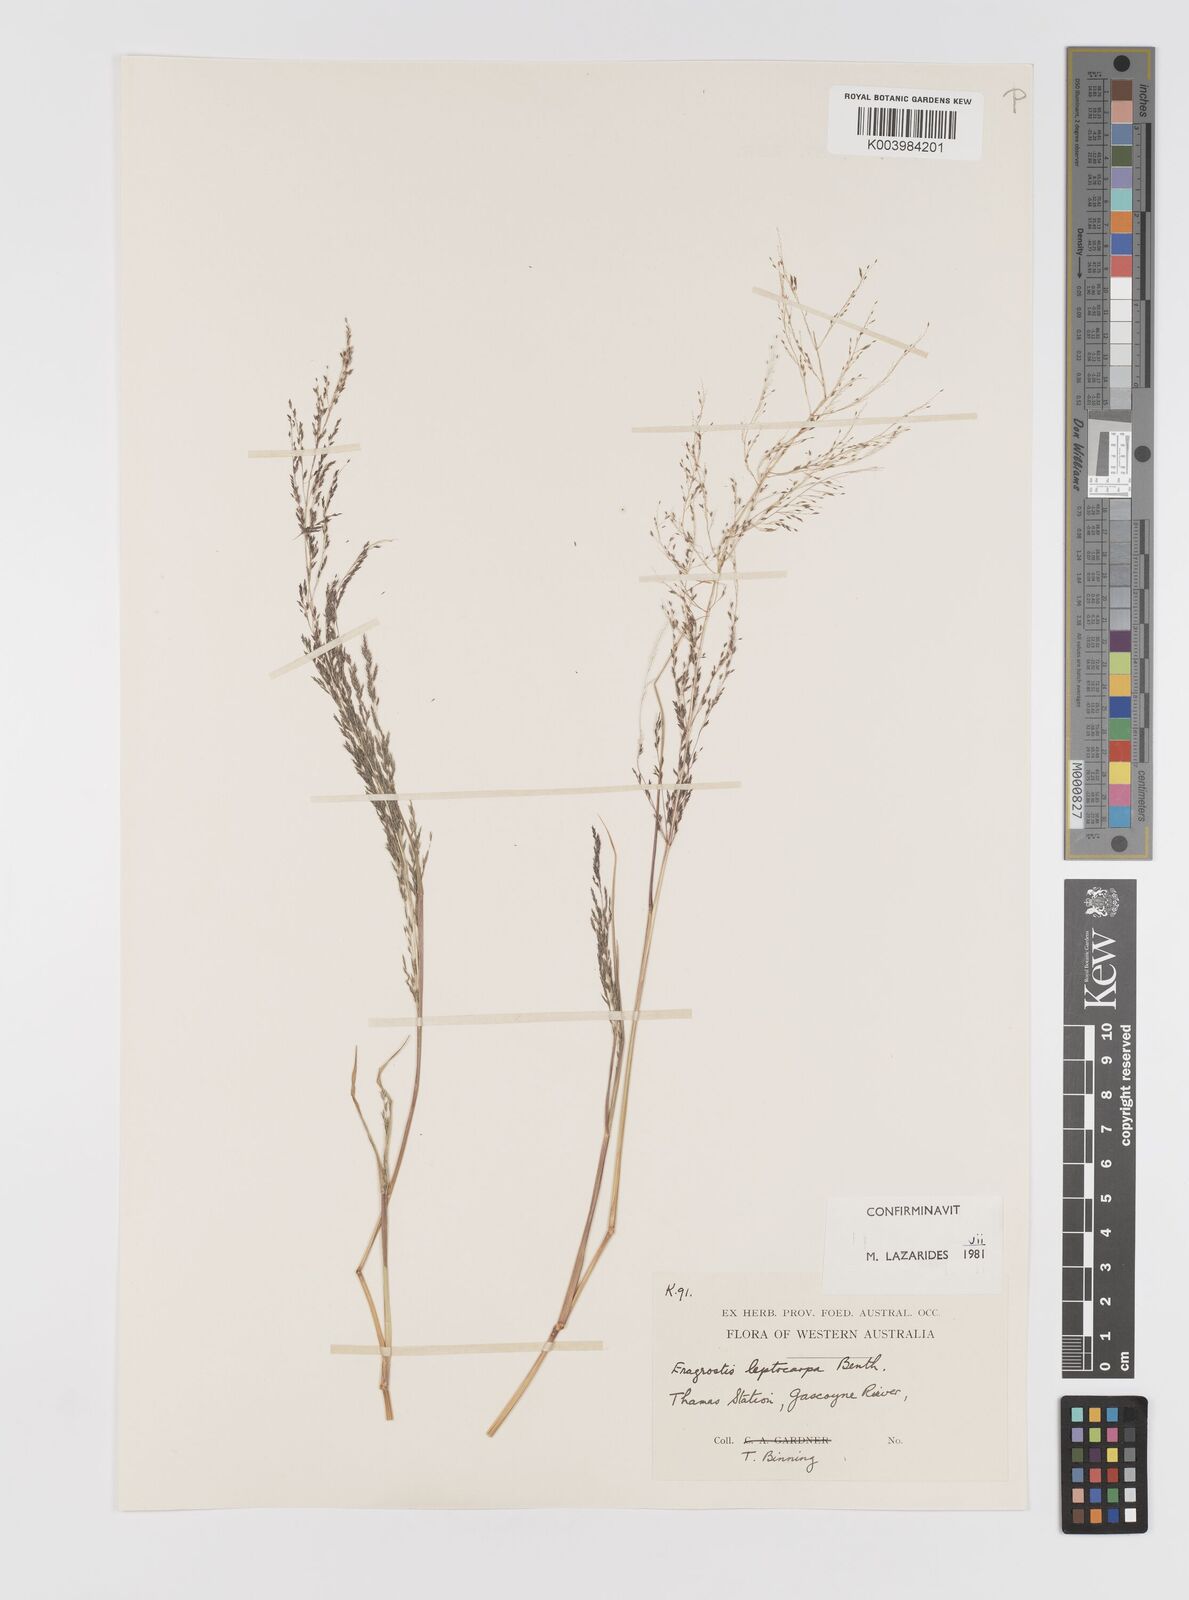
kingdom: Plantae
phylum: Tracheophyta
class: Liliopsida
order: Poales
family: Poaceae
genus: Eragrostis
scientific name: Eragrostis leptocarpa
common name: Drooping love grass
